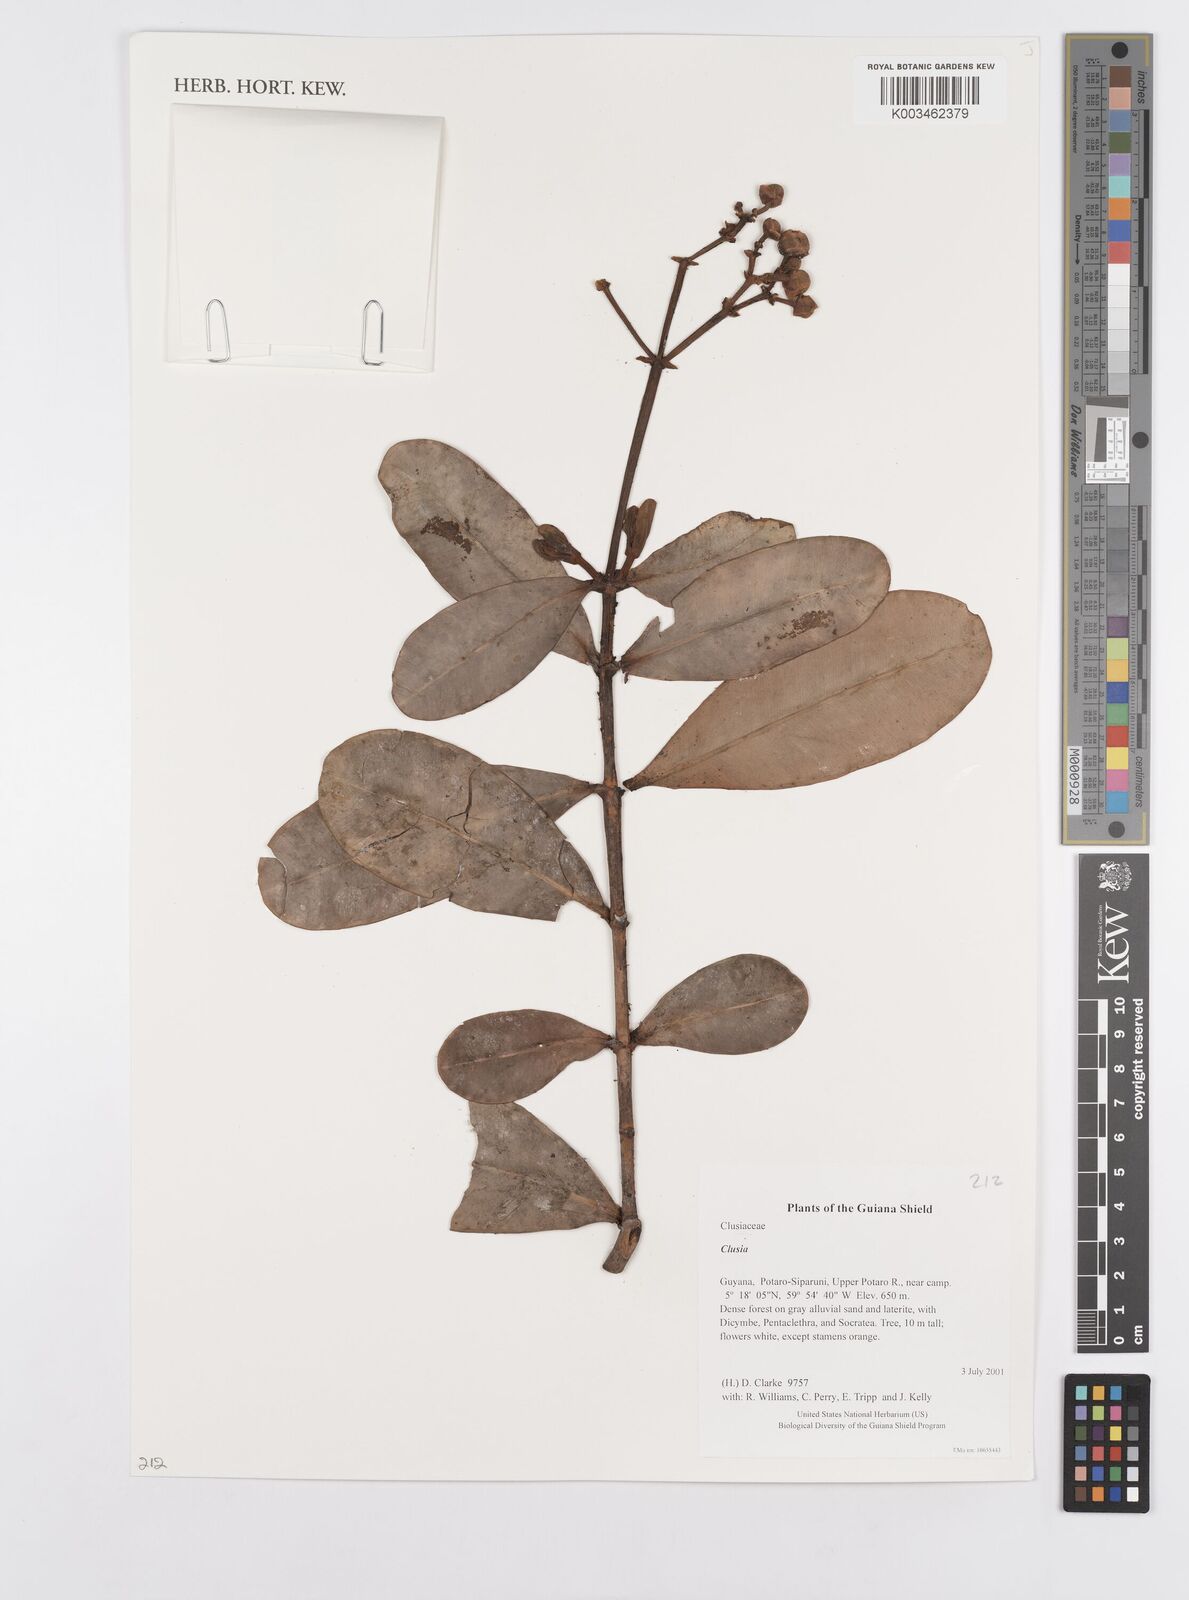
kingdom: Plantae
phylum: Tracheophyta
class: Magnoliopsida
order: Malpighiales
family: Clusiaceae
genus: Clusia
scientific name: Clusia
